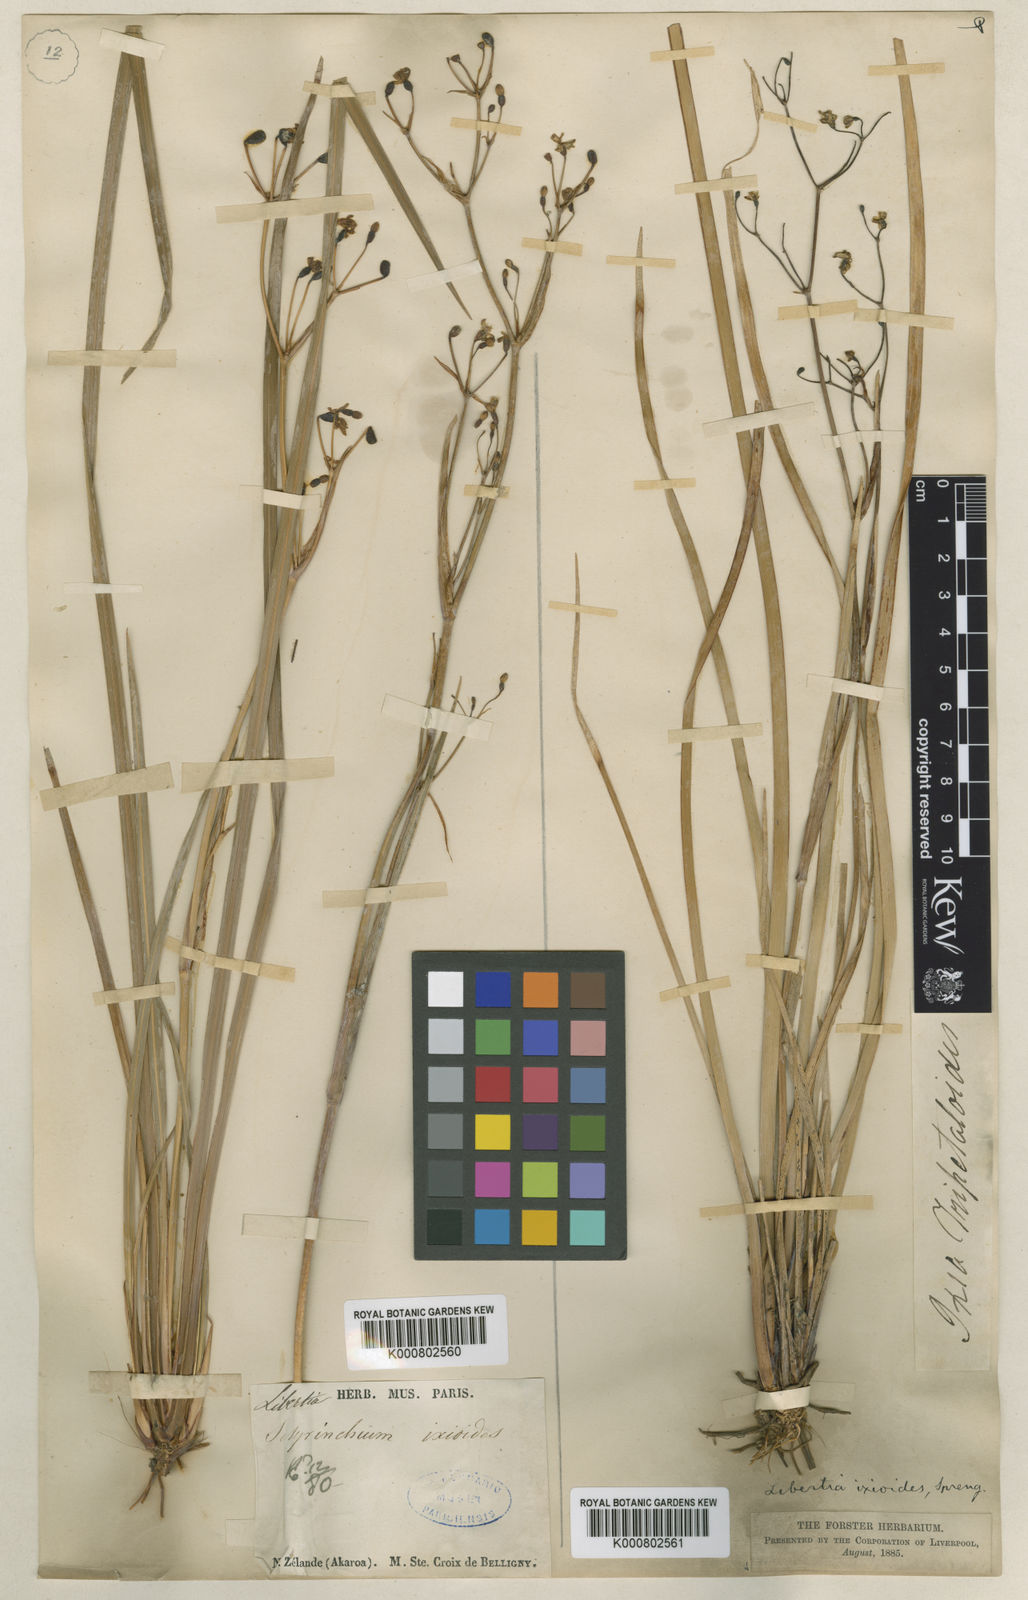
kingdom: Plantae
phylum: Tracheophyta
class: Liliopsida
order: Asparagales
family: Iridaceae
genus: Libertia
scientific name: Libertia ixioides
